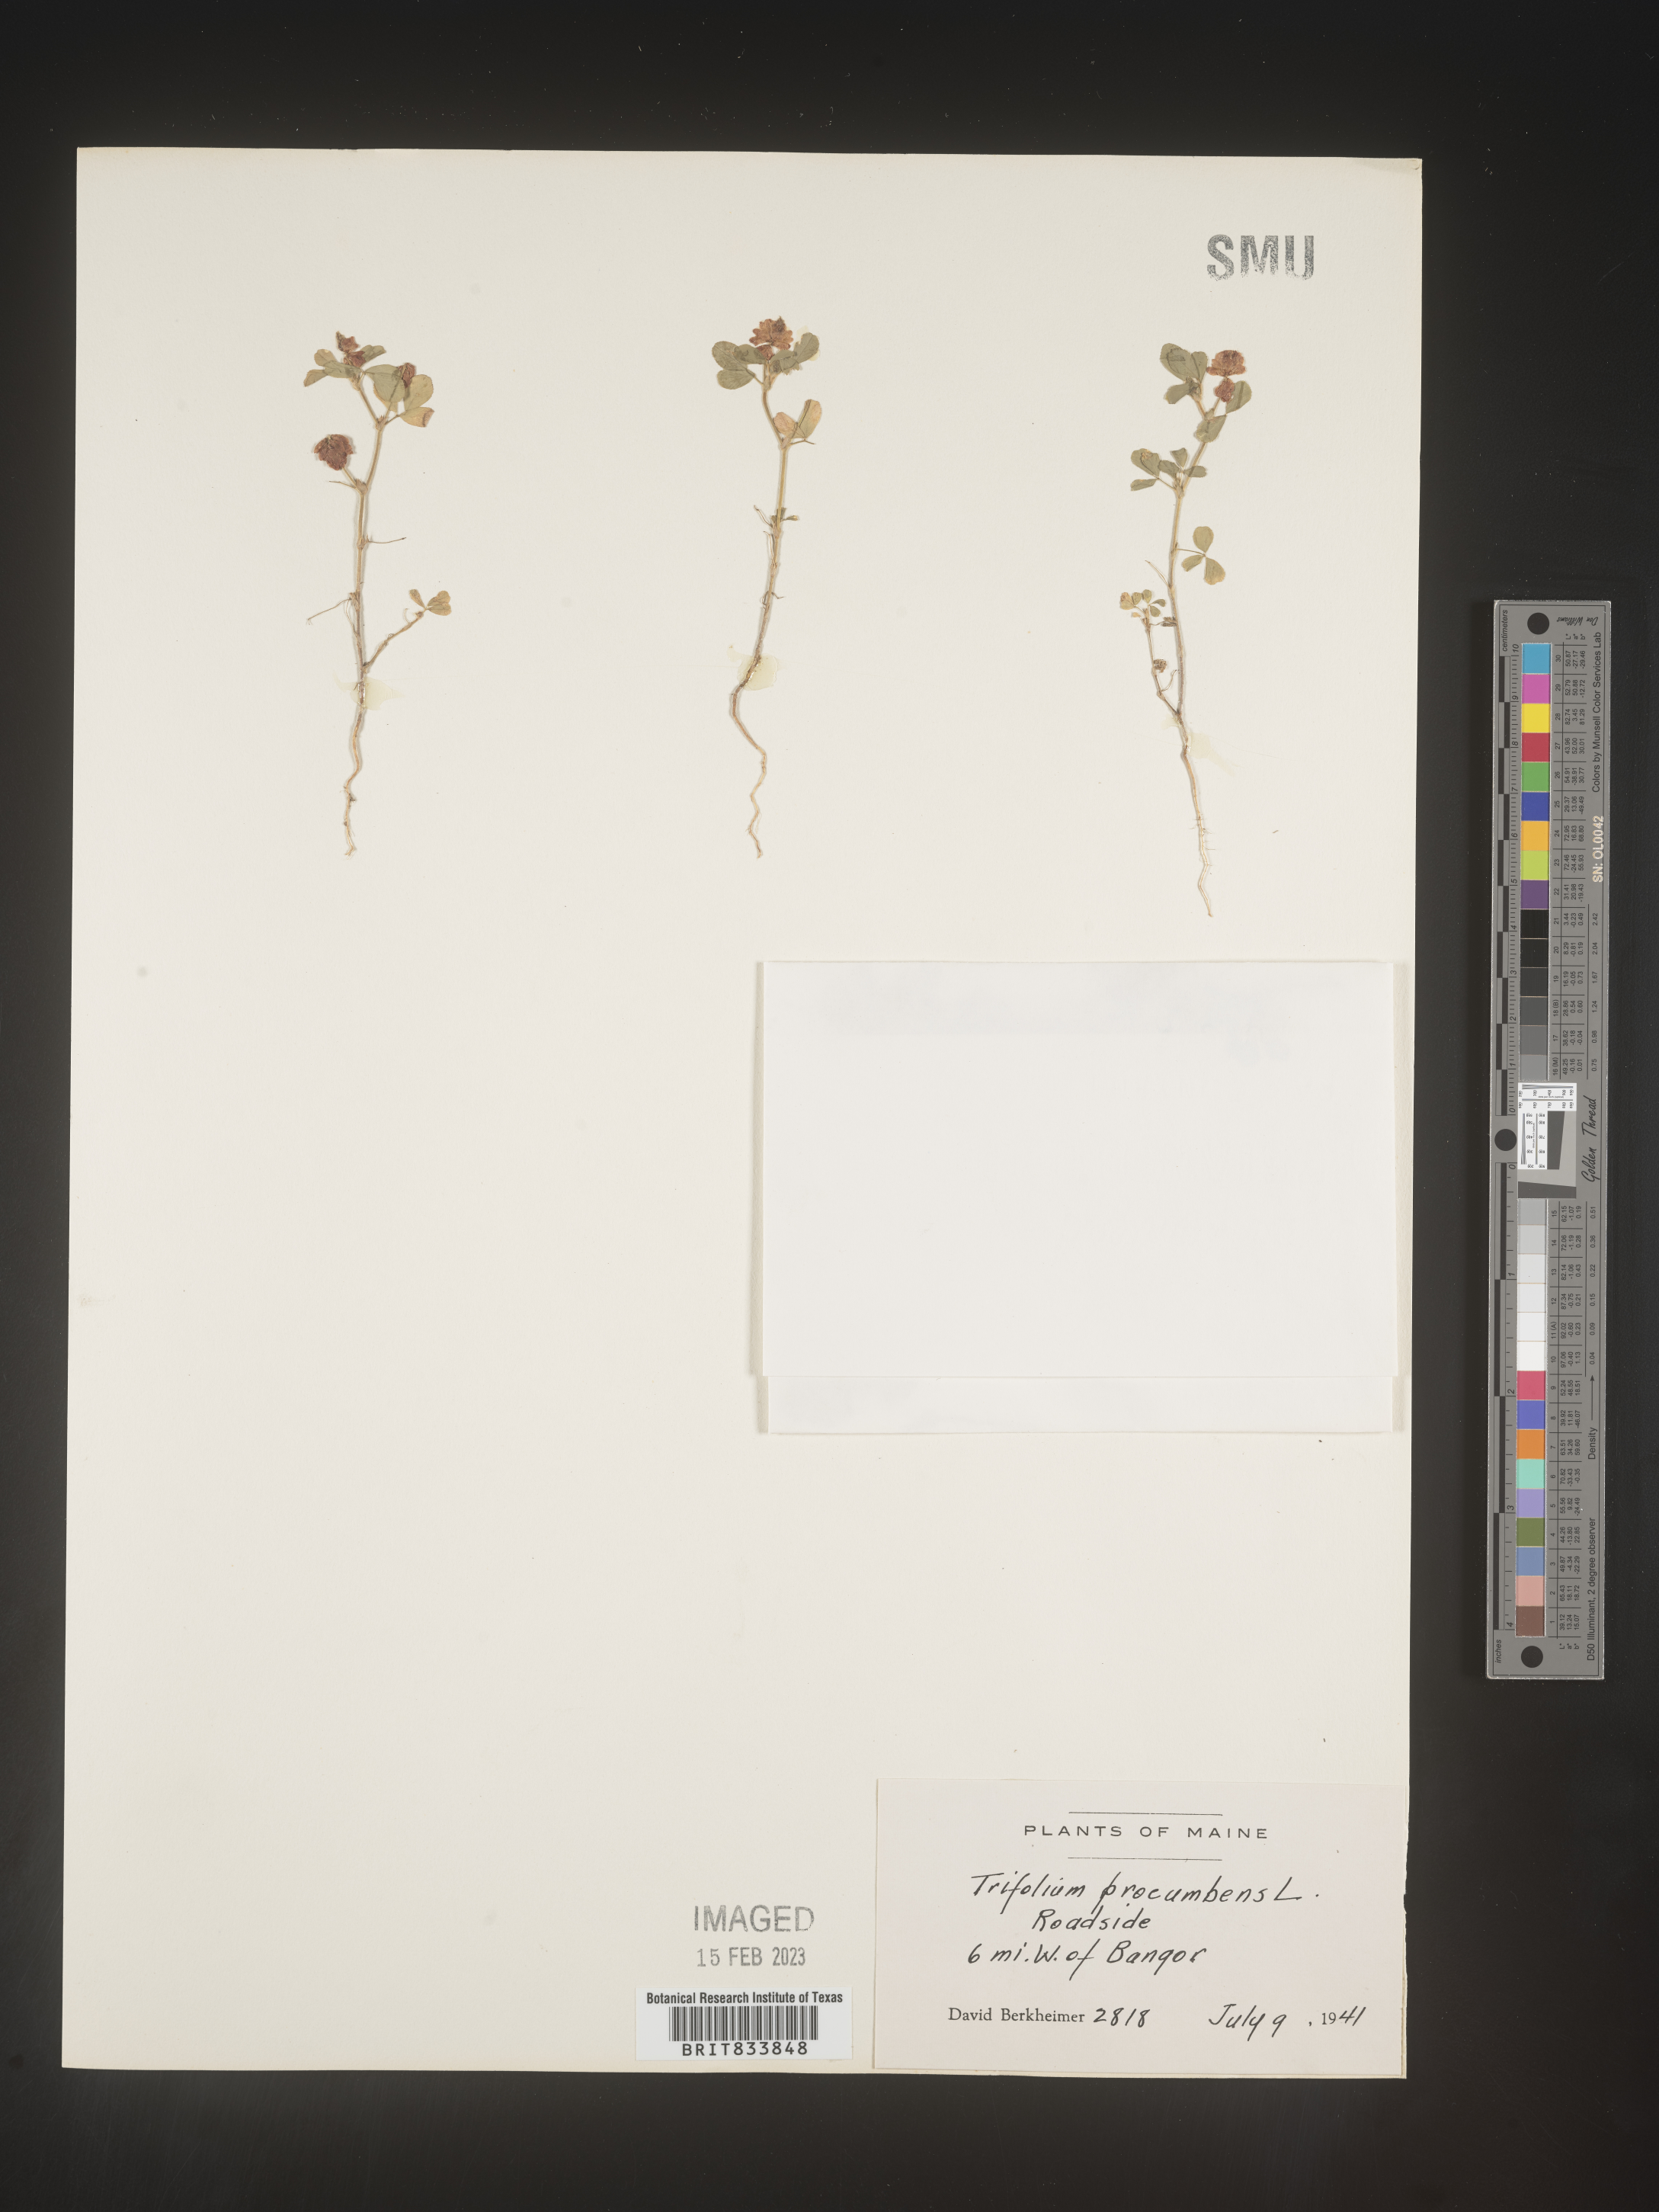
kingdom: Plantae
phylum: Tracheophyta
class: Magnoliopsida
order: Fabales
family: Fabaceae
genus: Trifolium
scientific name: Trifolium campestre
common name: Field clover
